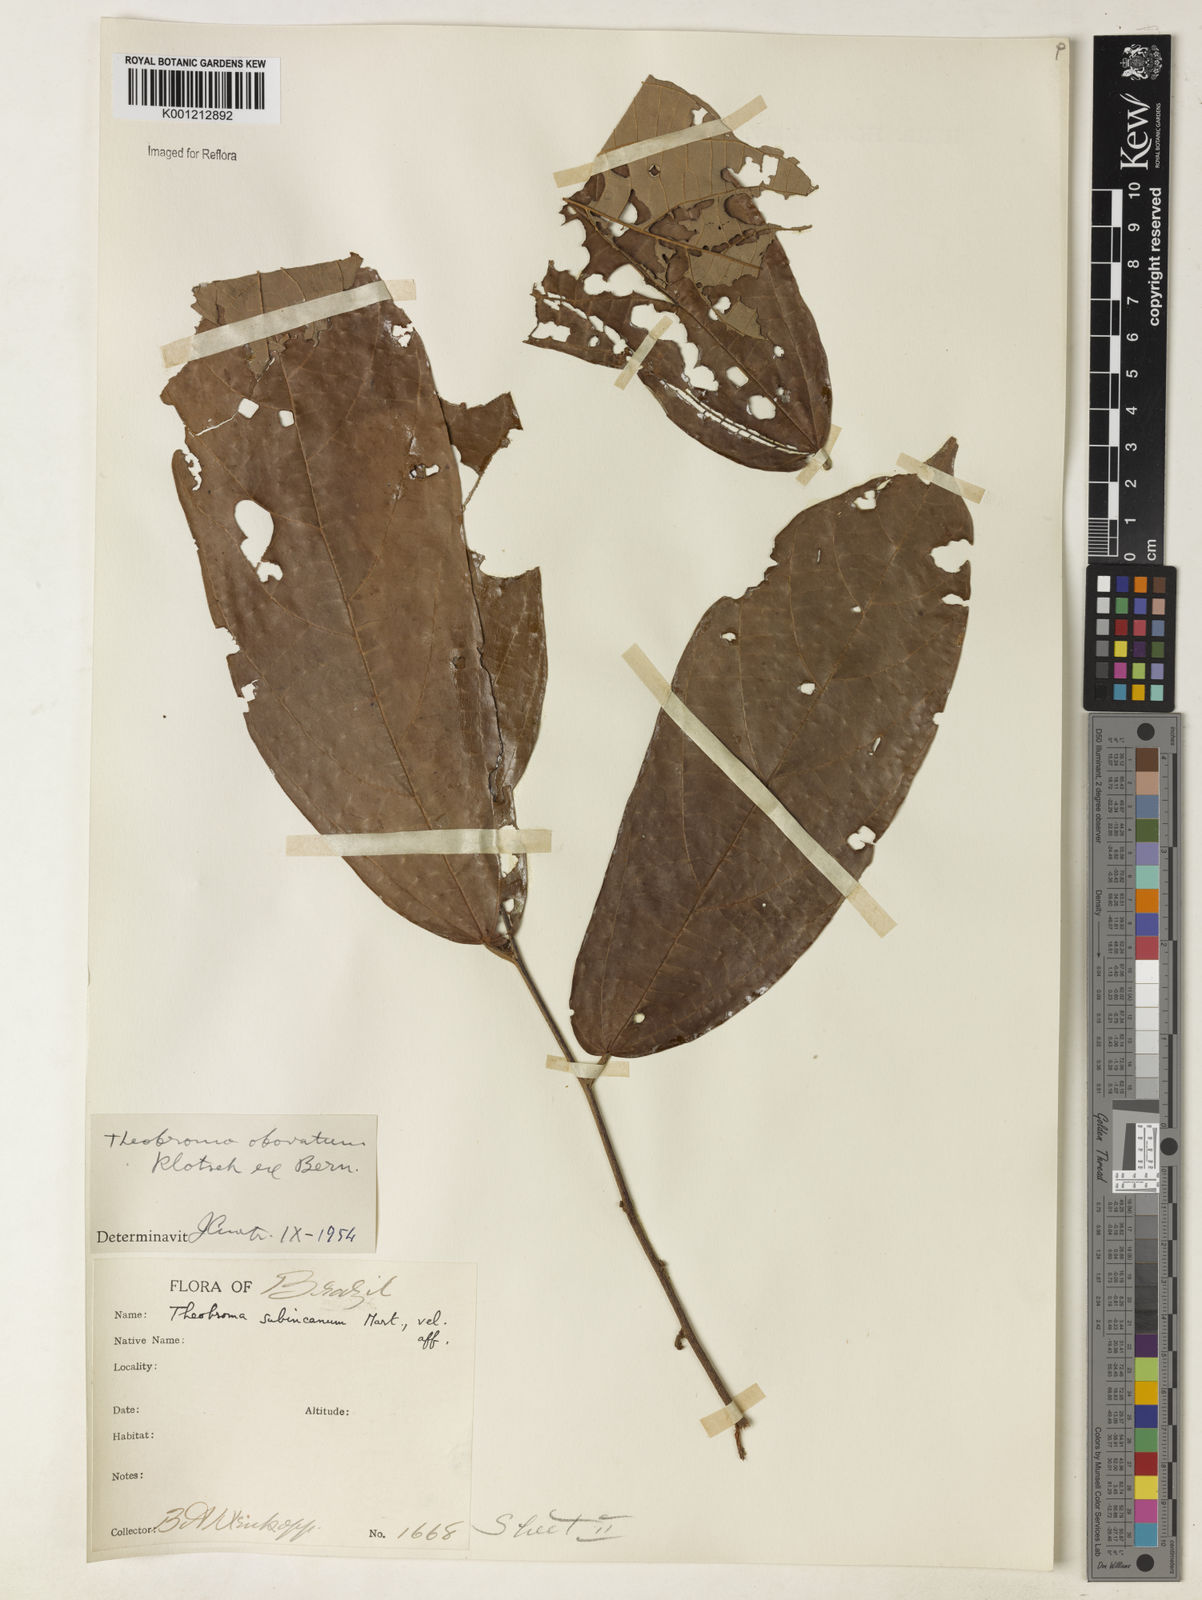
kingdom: Plantae
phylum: Tracheophyta
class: Magnoliopsida
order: Malvales
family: Malvaceae
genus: Theobroma
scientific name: Theobroma obovatum
